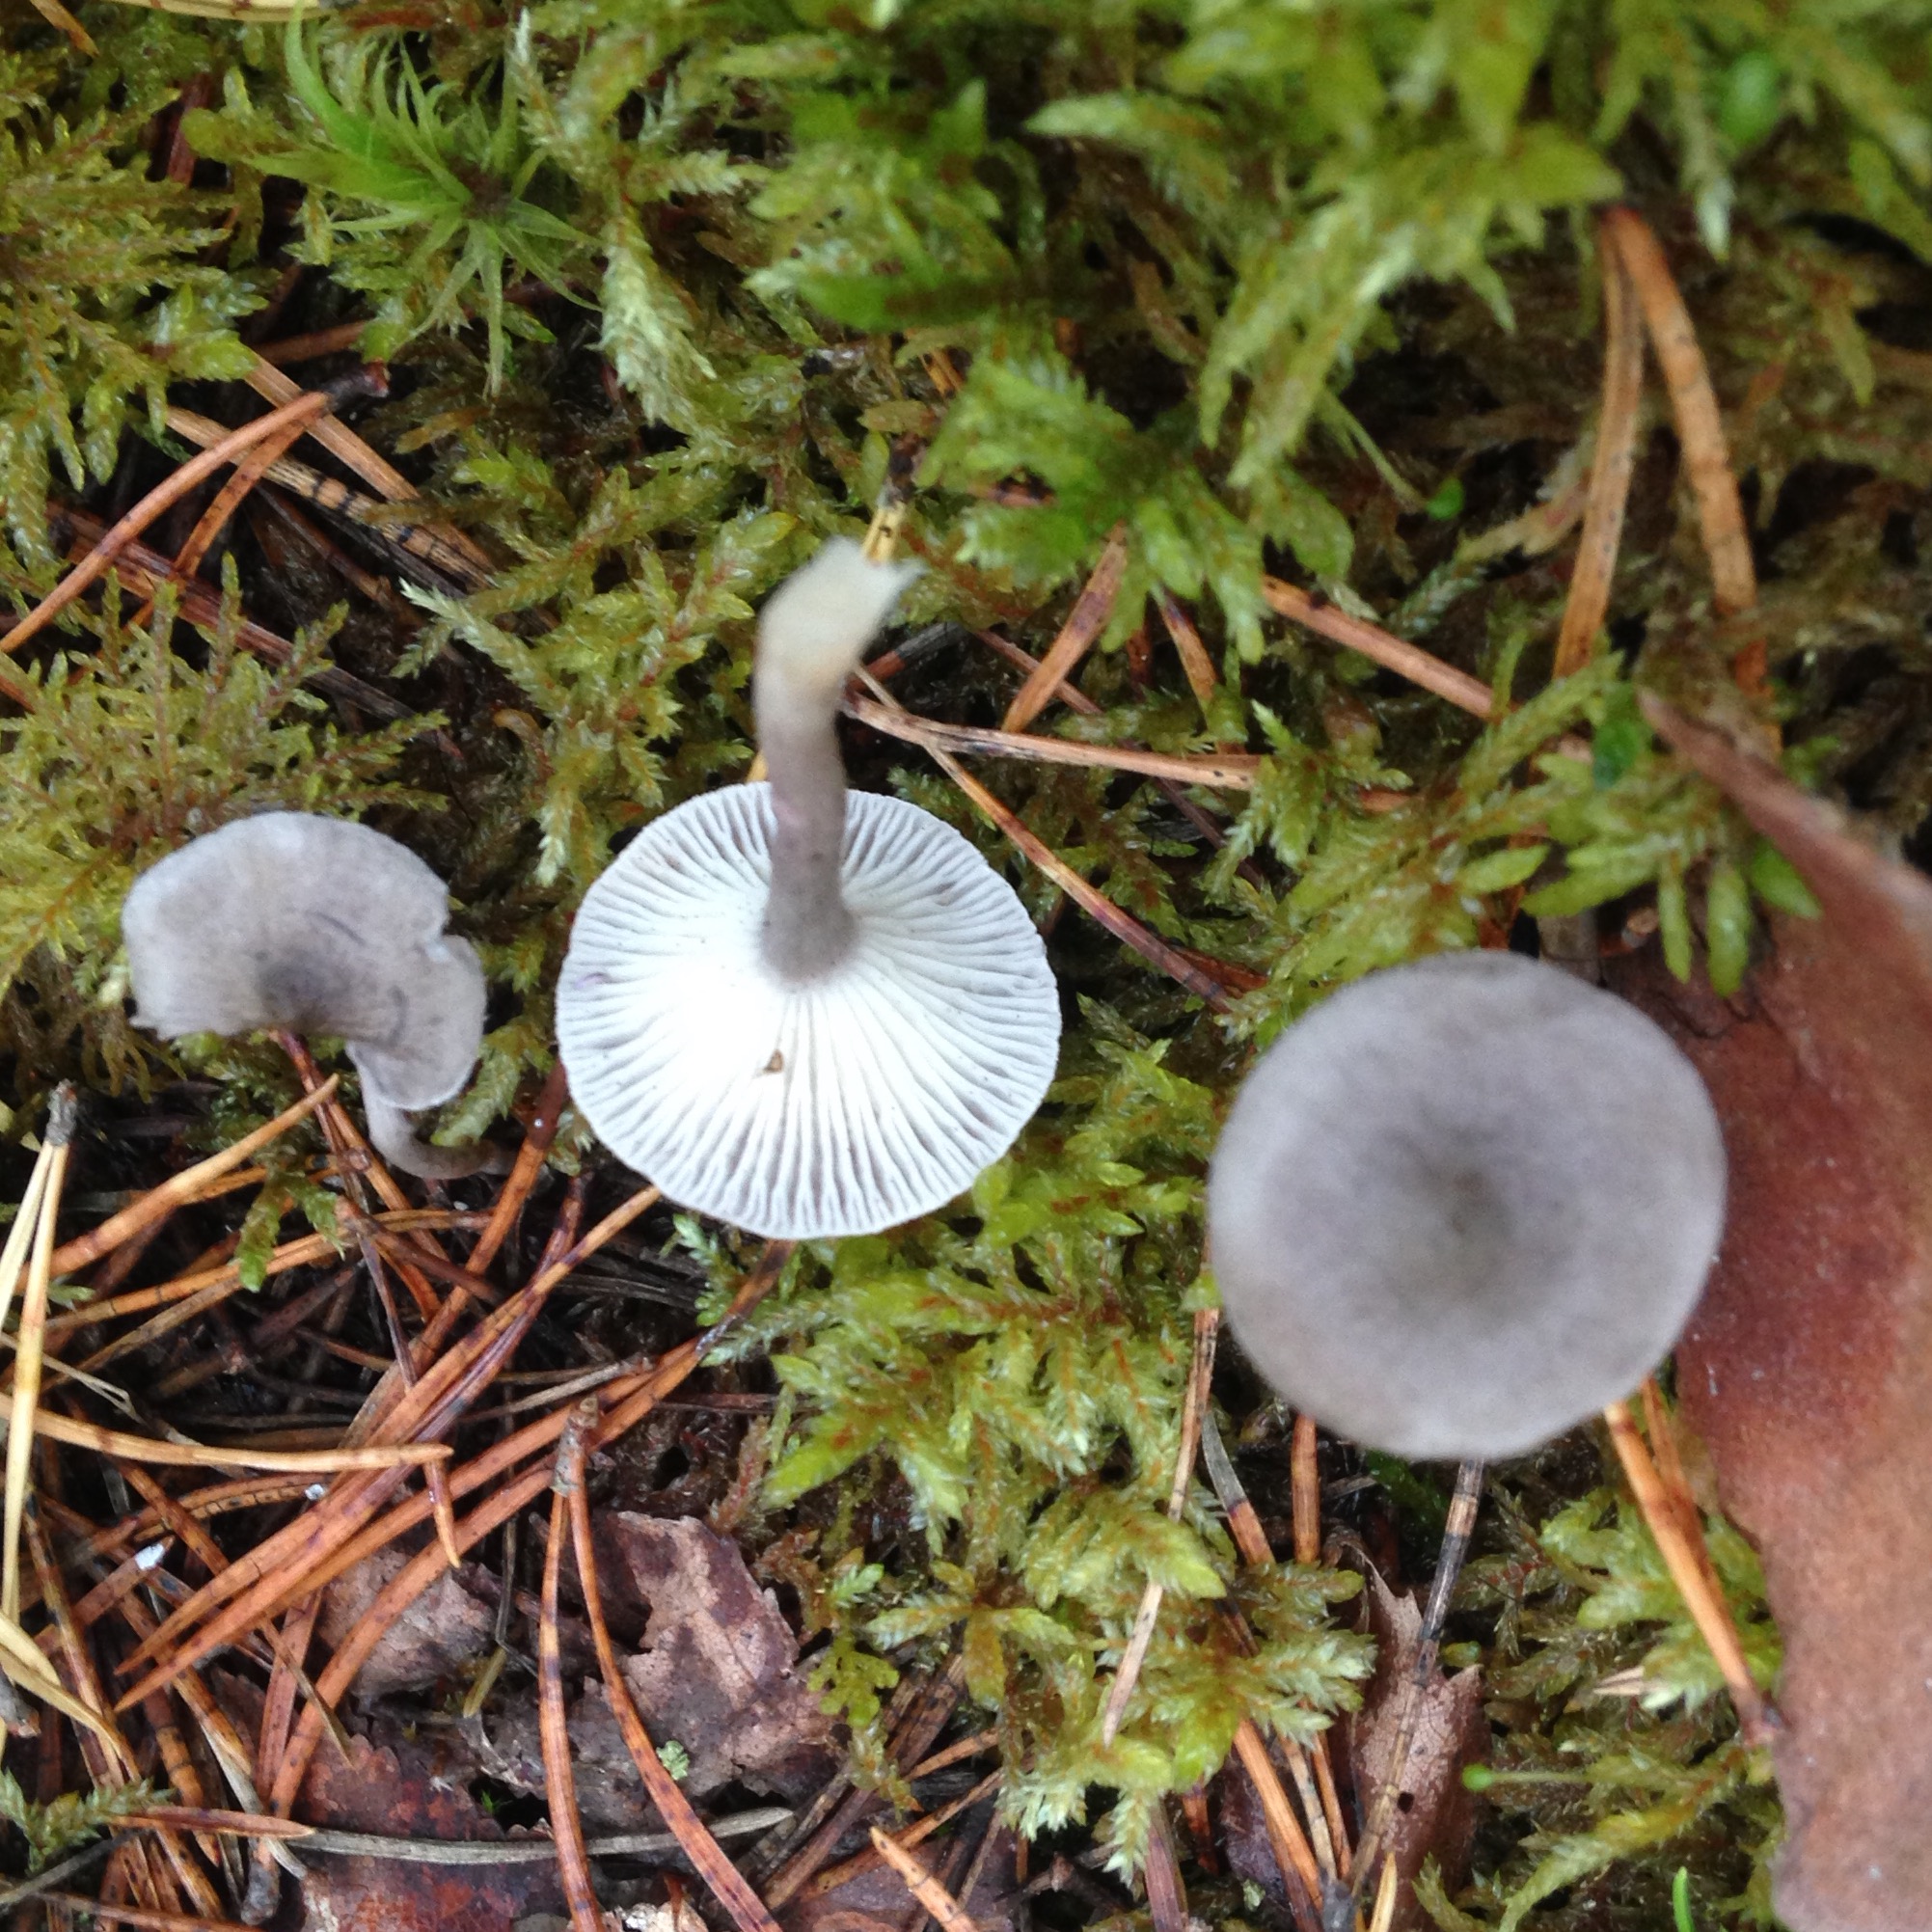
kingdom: Fungi
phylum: Basidiomycota
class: Agaricomycetes
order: Agaricales
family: Hygrophoraceae
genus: Cantharellula
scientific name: Cantharellula umbonata
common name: The humpback
